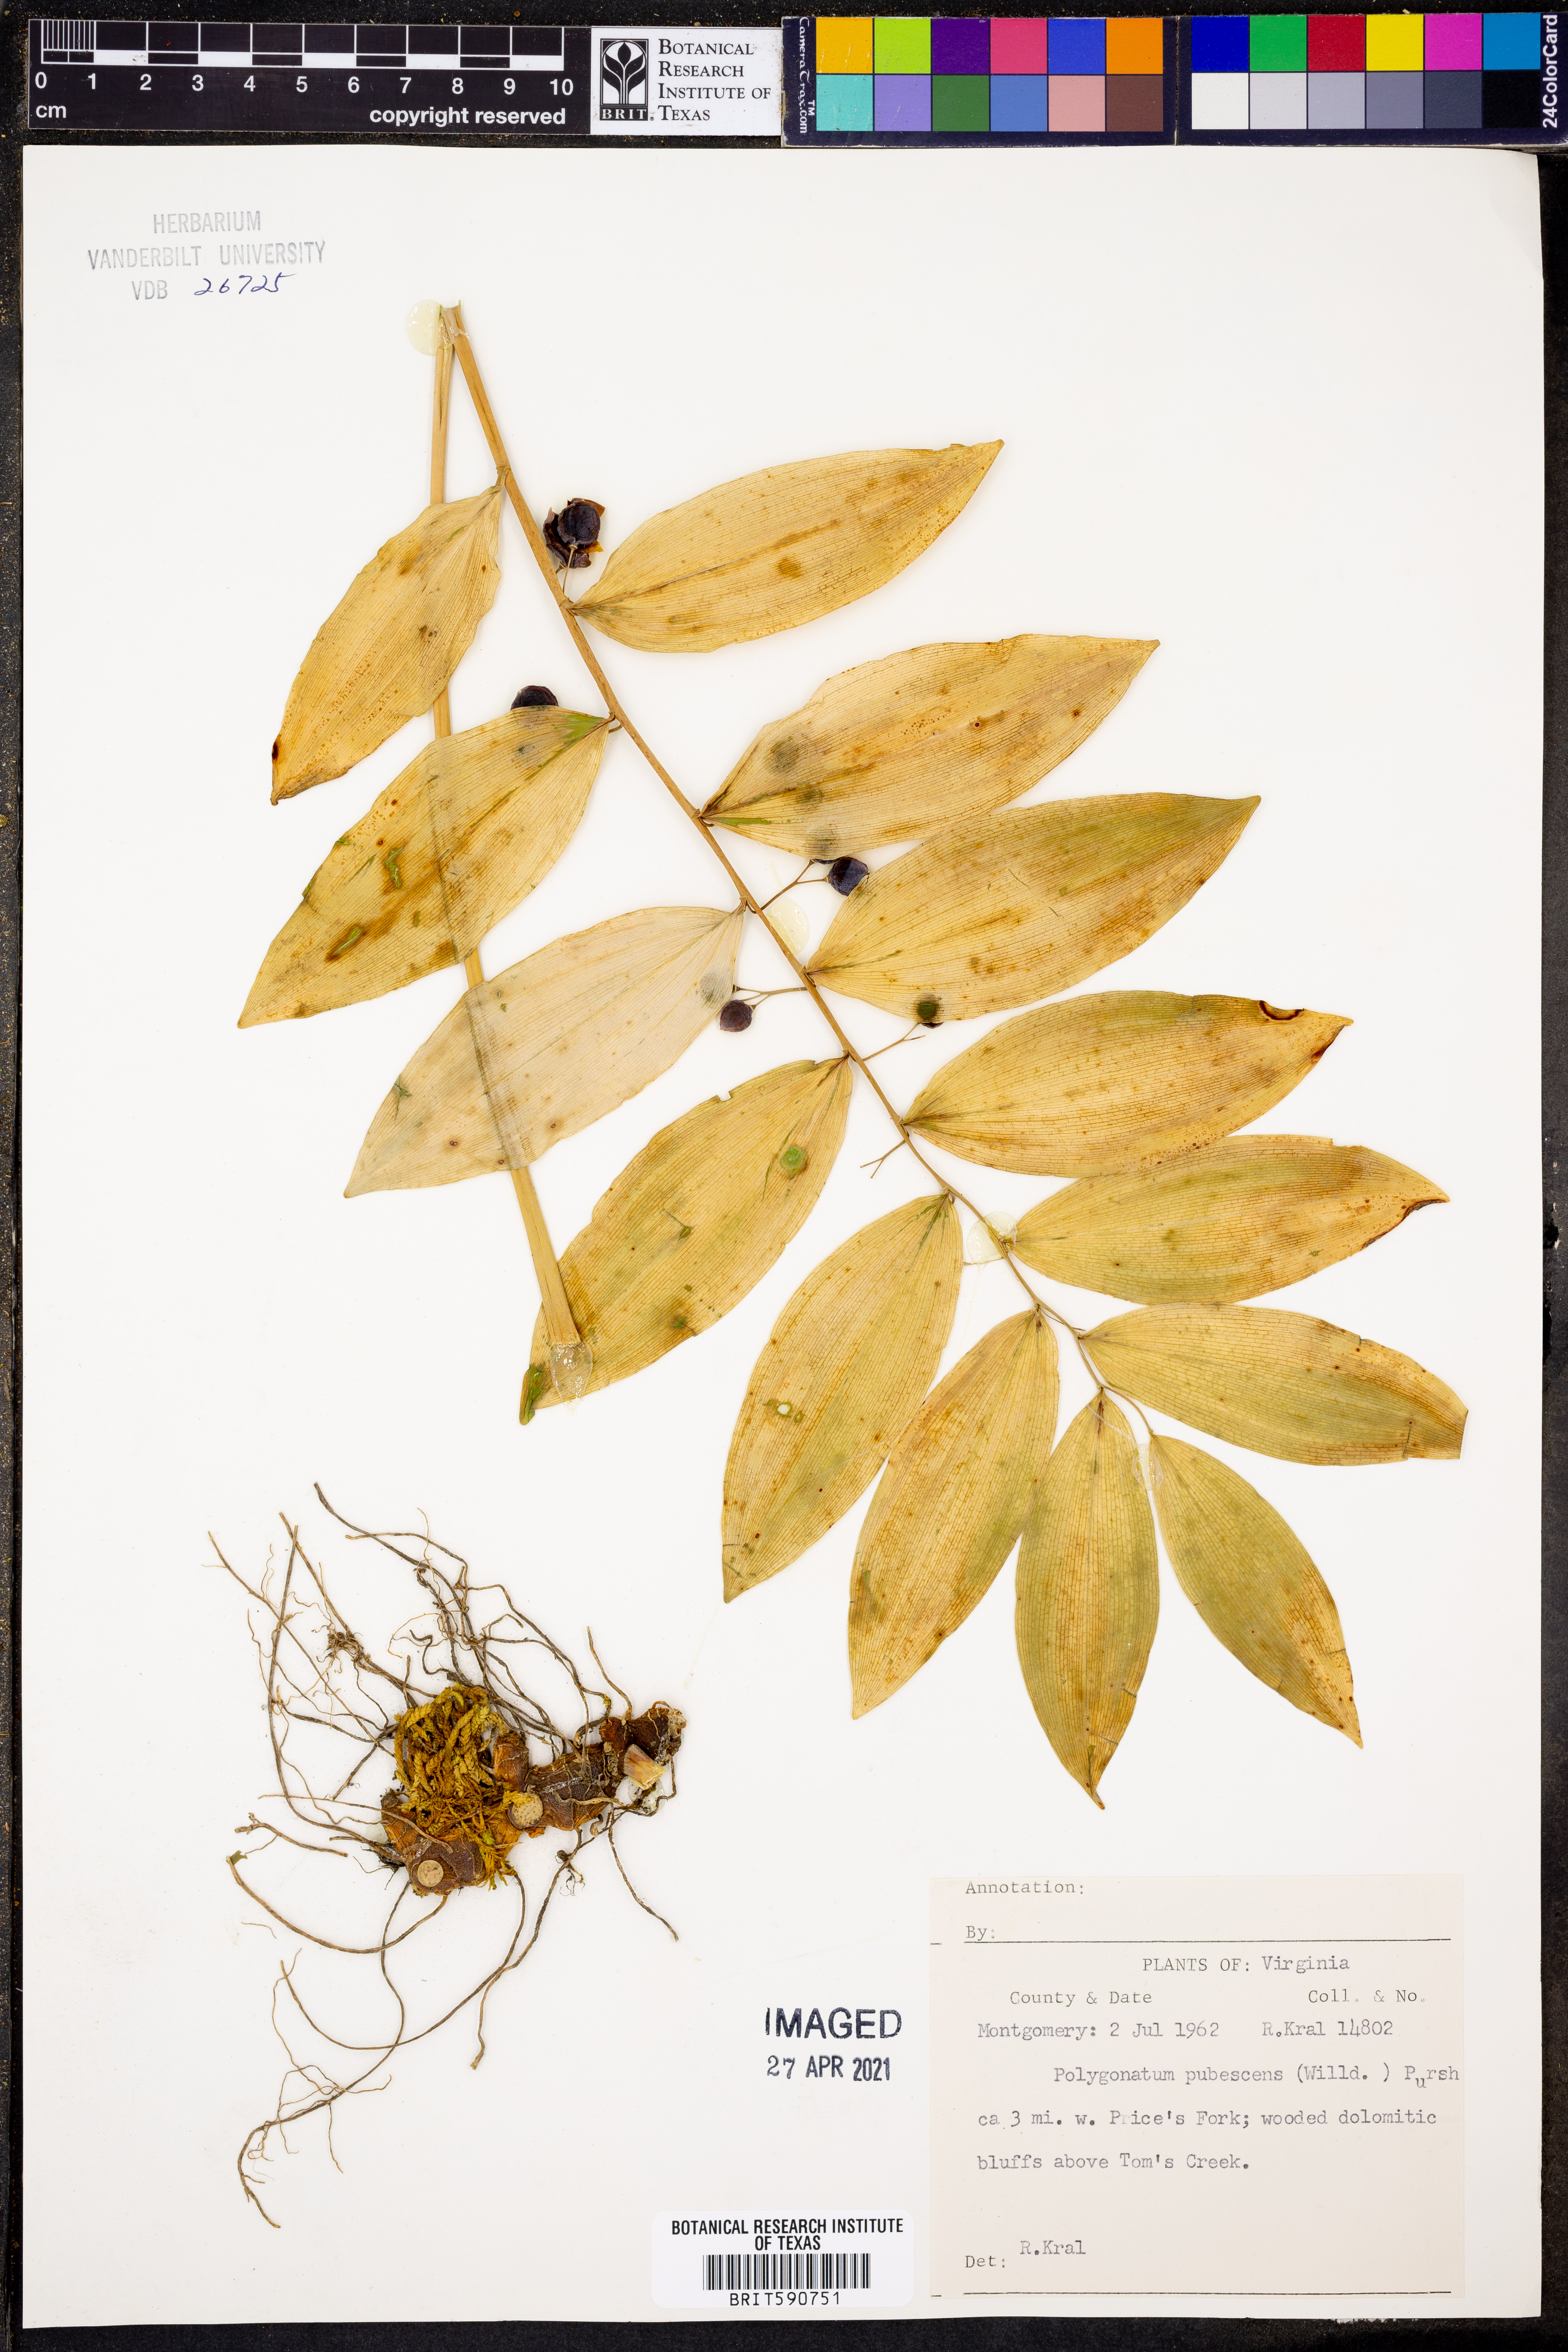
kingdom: Plantae
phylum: Tracheophyta
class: Liliopsida
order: Asparagales
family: Asparagaceae
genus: Polygonatum
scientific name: Polygonatum pubescens
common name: Downy solomon's seal
